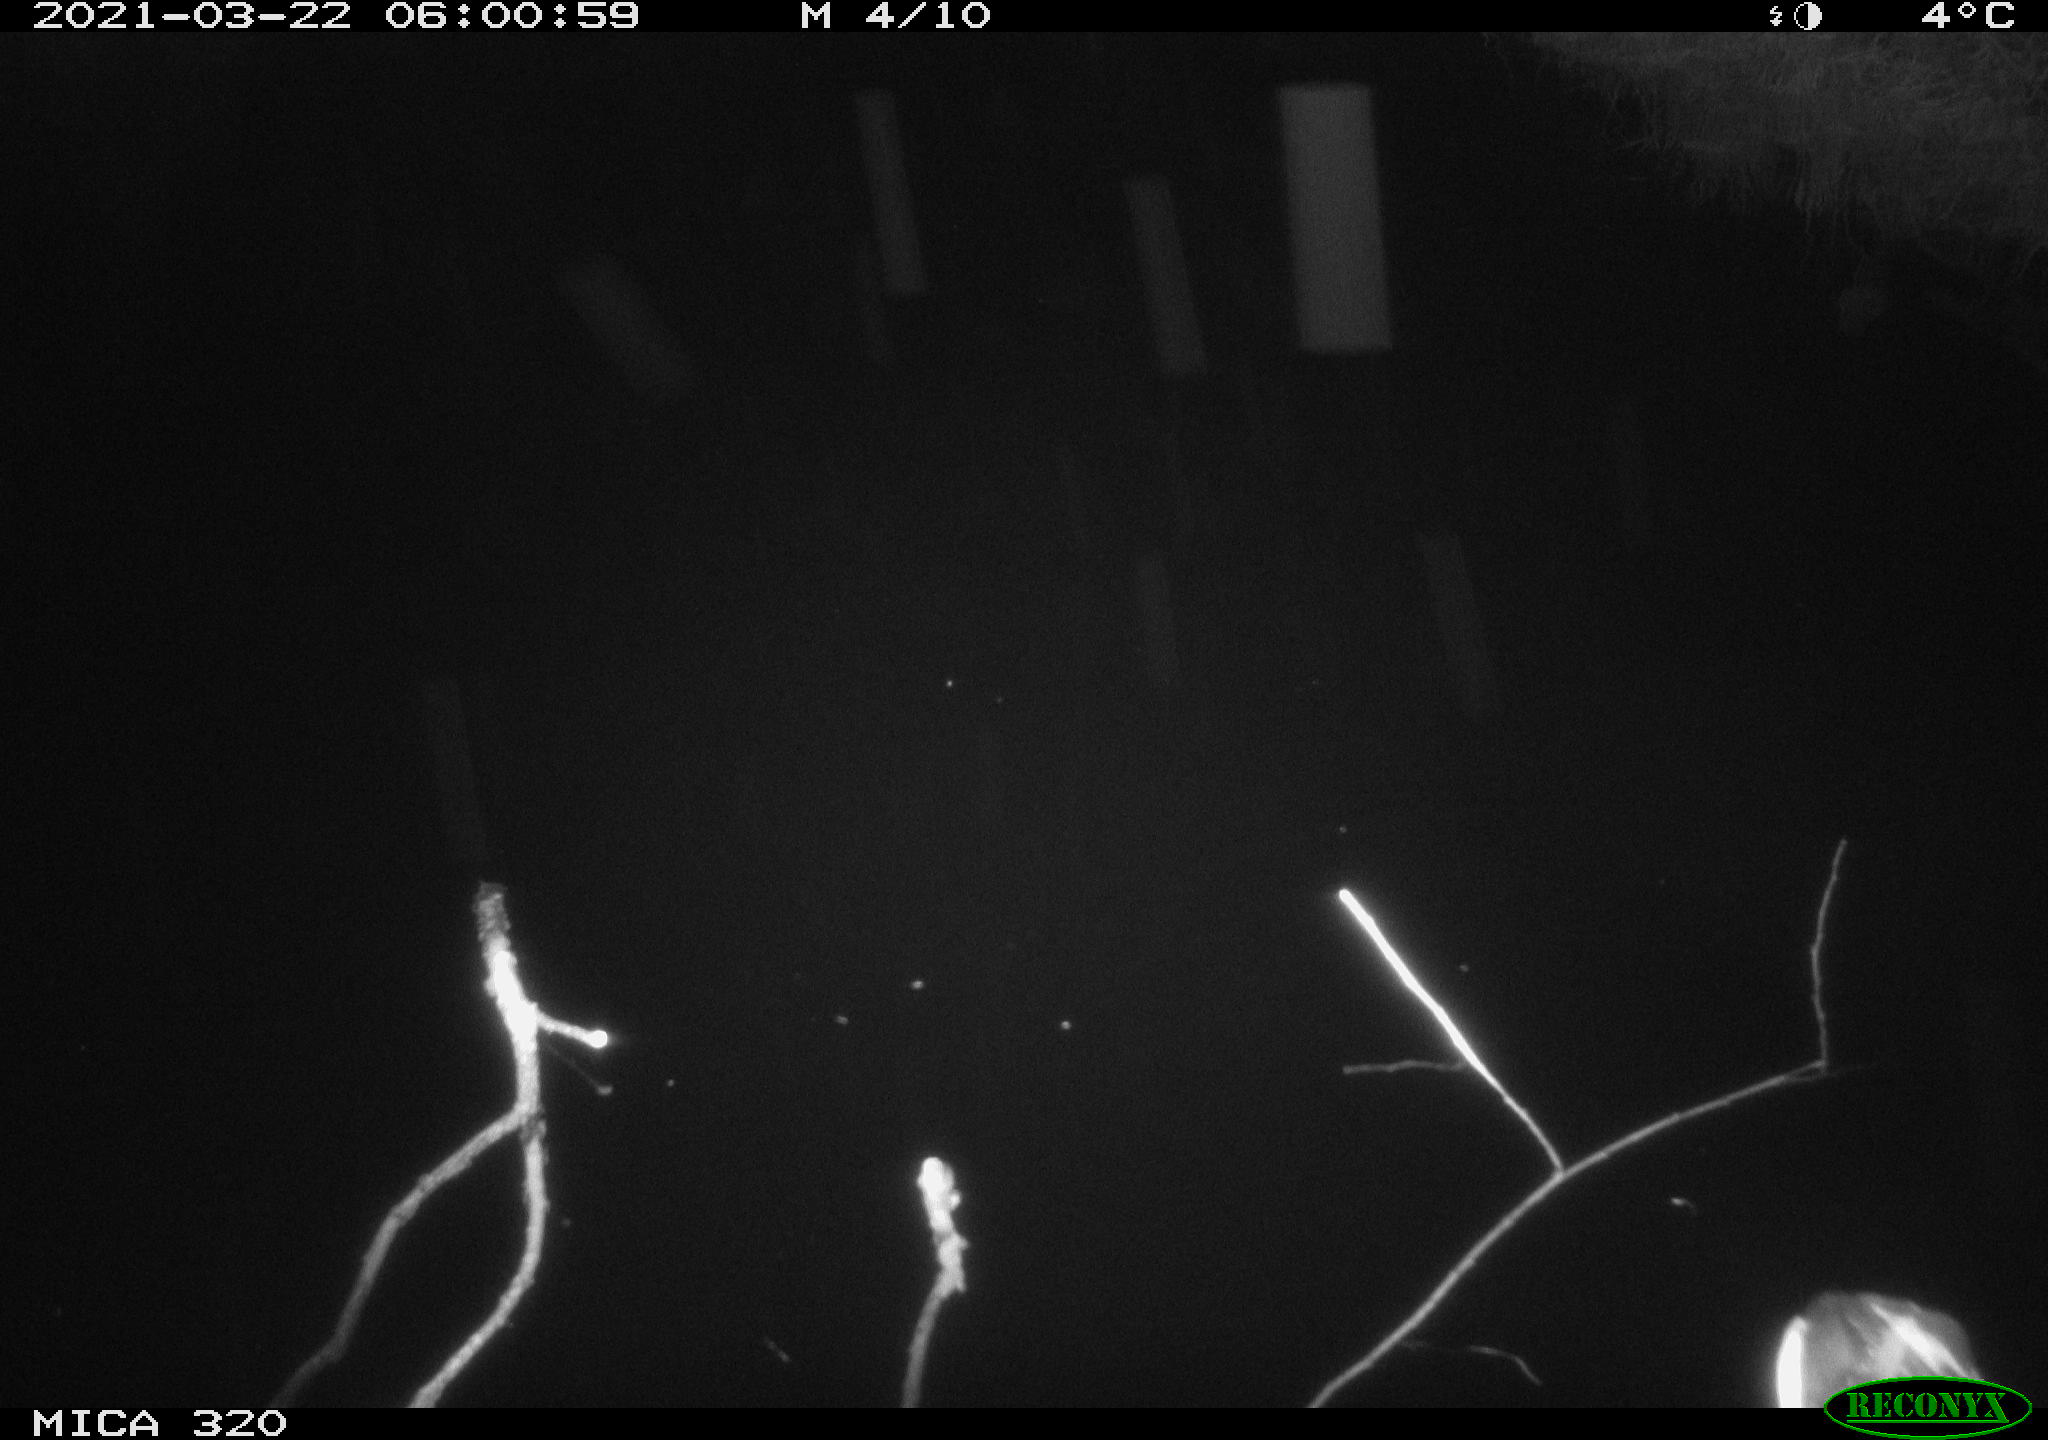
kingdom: Animalia
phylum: Chordata
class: Aves
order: Gruiformes
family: Rallidae
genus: Gallinula
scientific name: Gallinula chloropus
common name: Common moorhen
